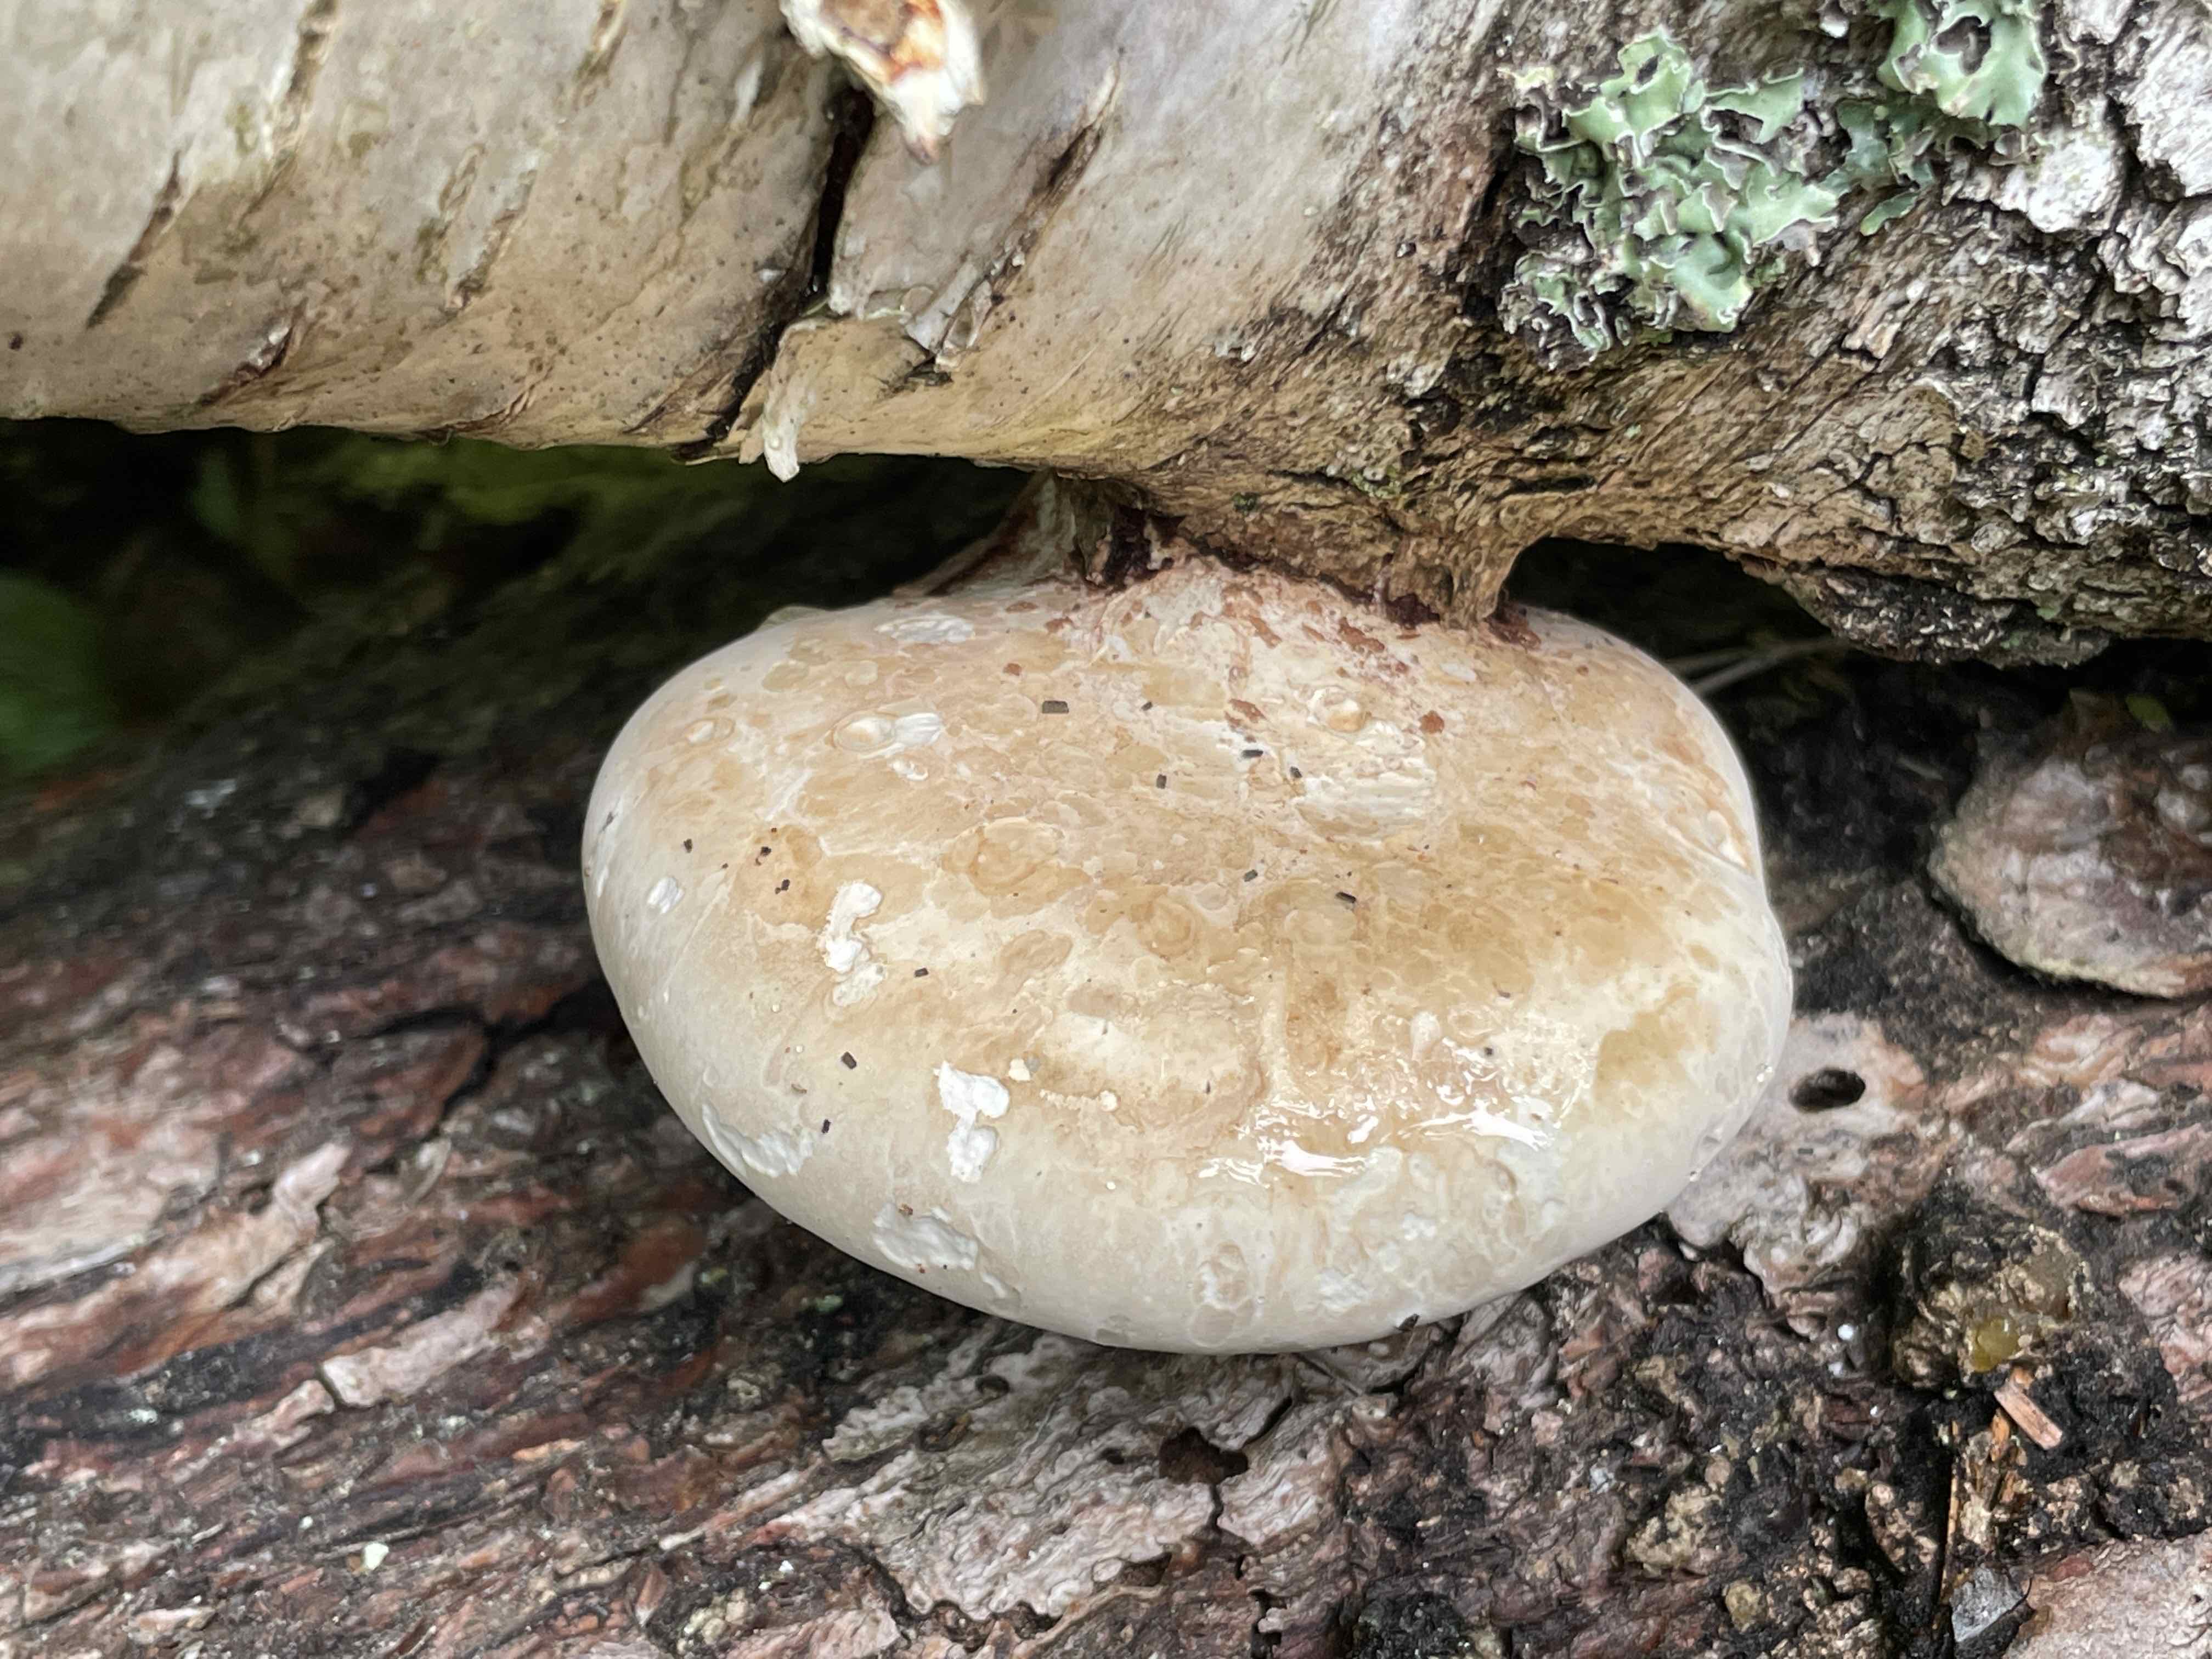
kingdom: Fungi
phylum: Basidiomycota
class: Agaricomycetes
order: Polyporales
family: Fomitopsidaceae
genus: Fomitopsis
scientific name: Fomitopsis betulina
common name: birkeporesvamp
